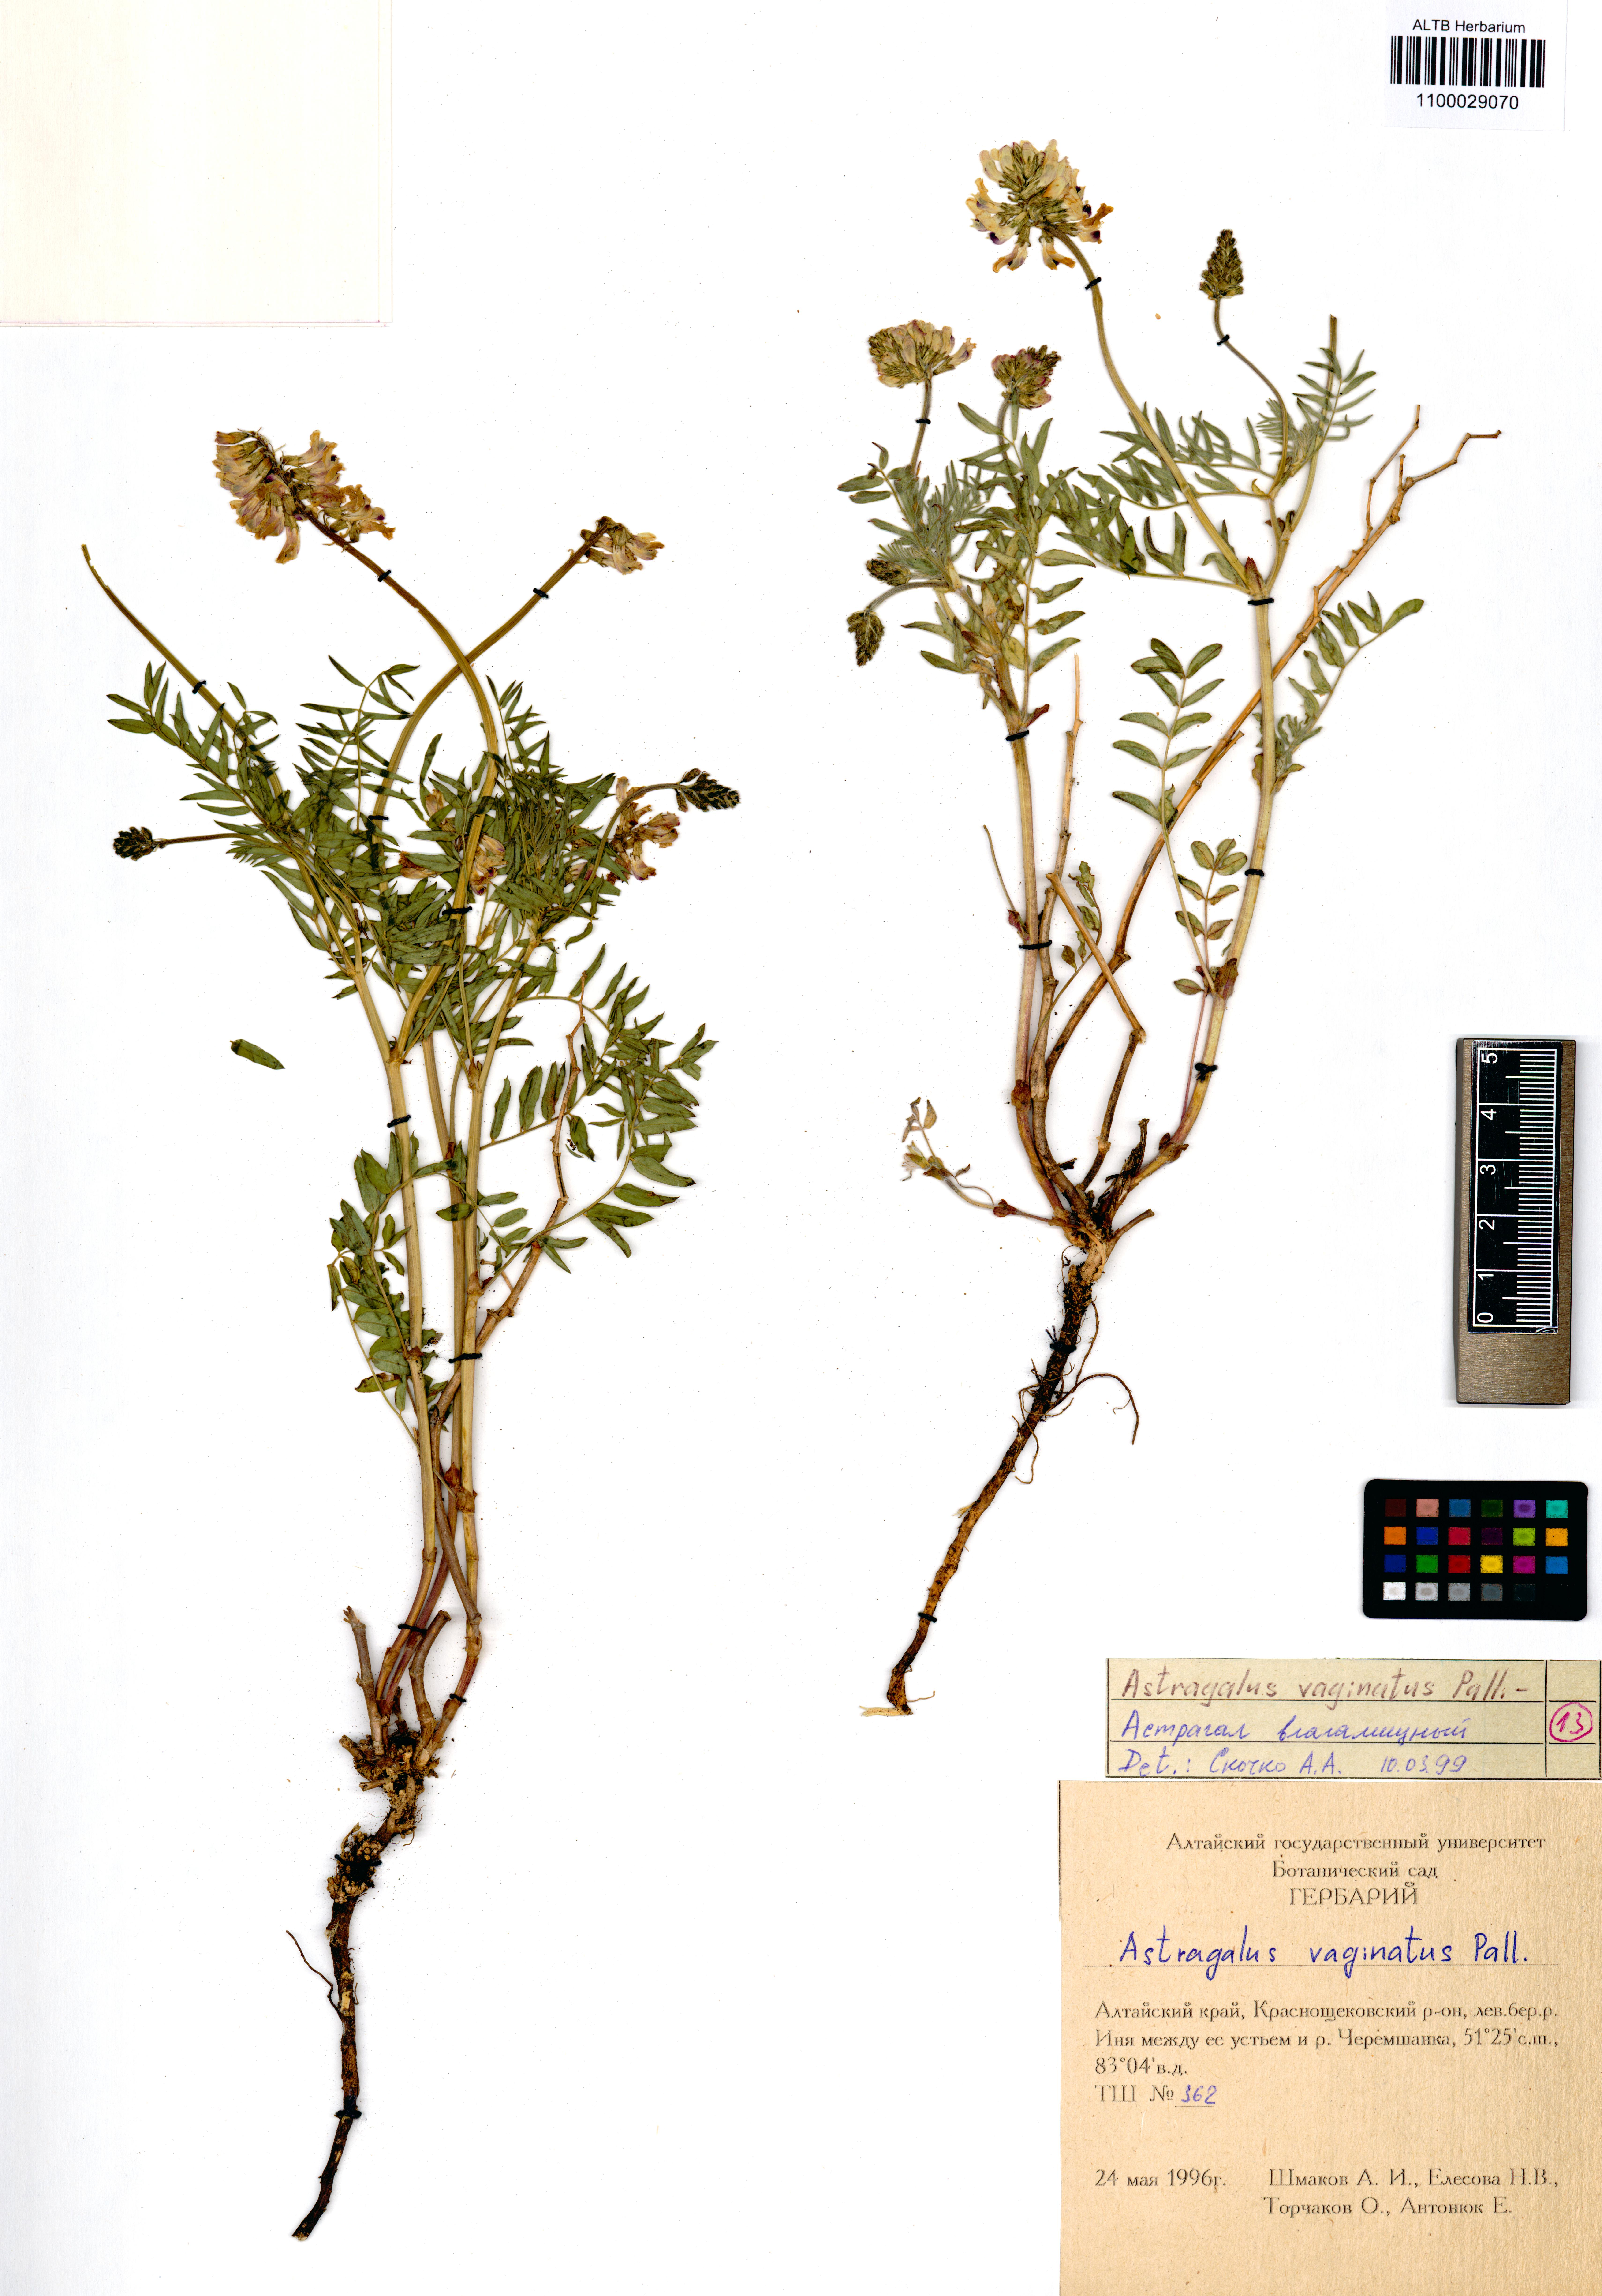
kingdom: Plantae
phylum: Tracheophyta
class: Magnoliopsida
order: Fabales
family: Fabaceae
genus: Astragalus
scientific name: Astragalus vaginatus
